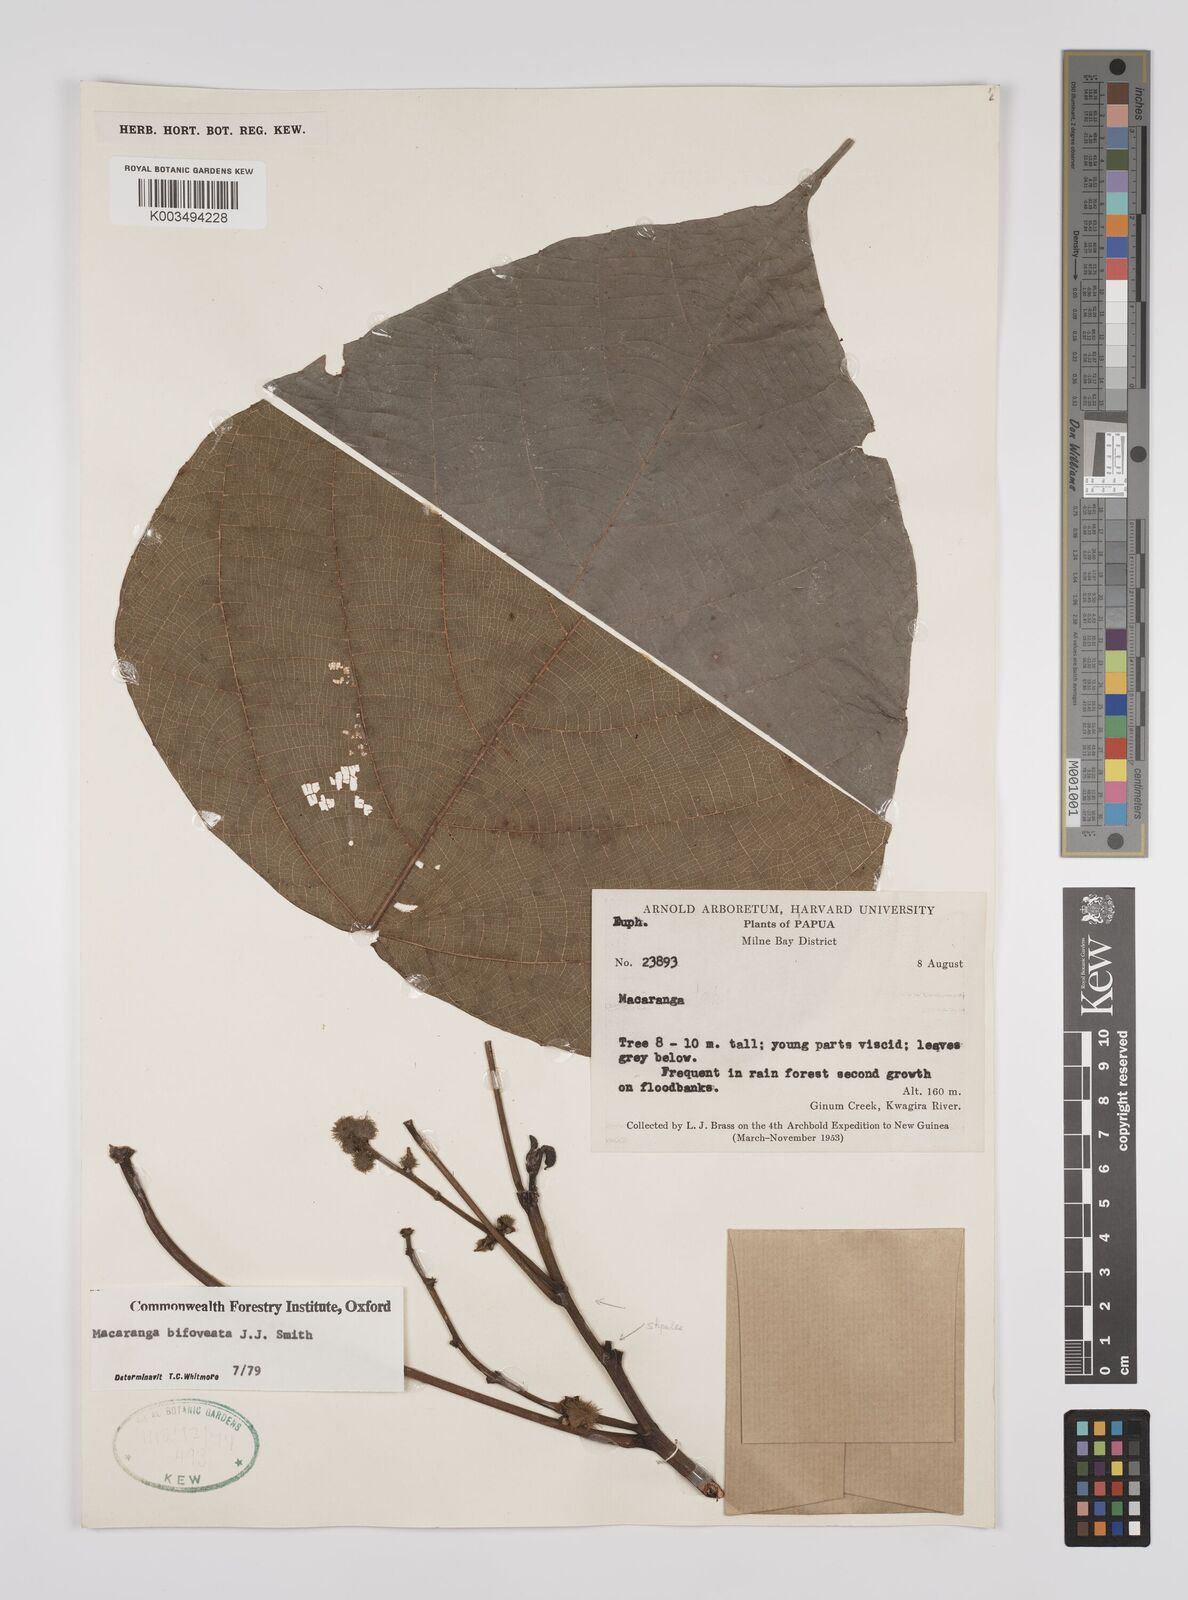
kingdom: Plantae
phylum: Tracheophyta
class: Magnoliopsida
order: Malpighiales
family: Euphorbiaceae
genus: Macaranga
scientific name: Macaranga bifoveata
